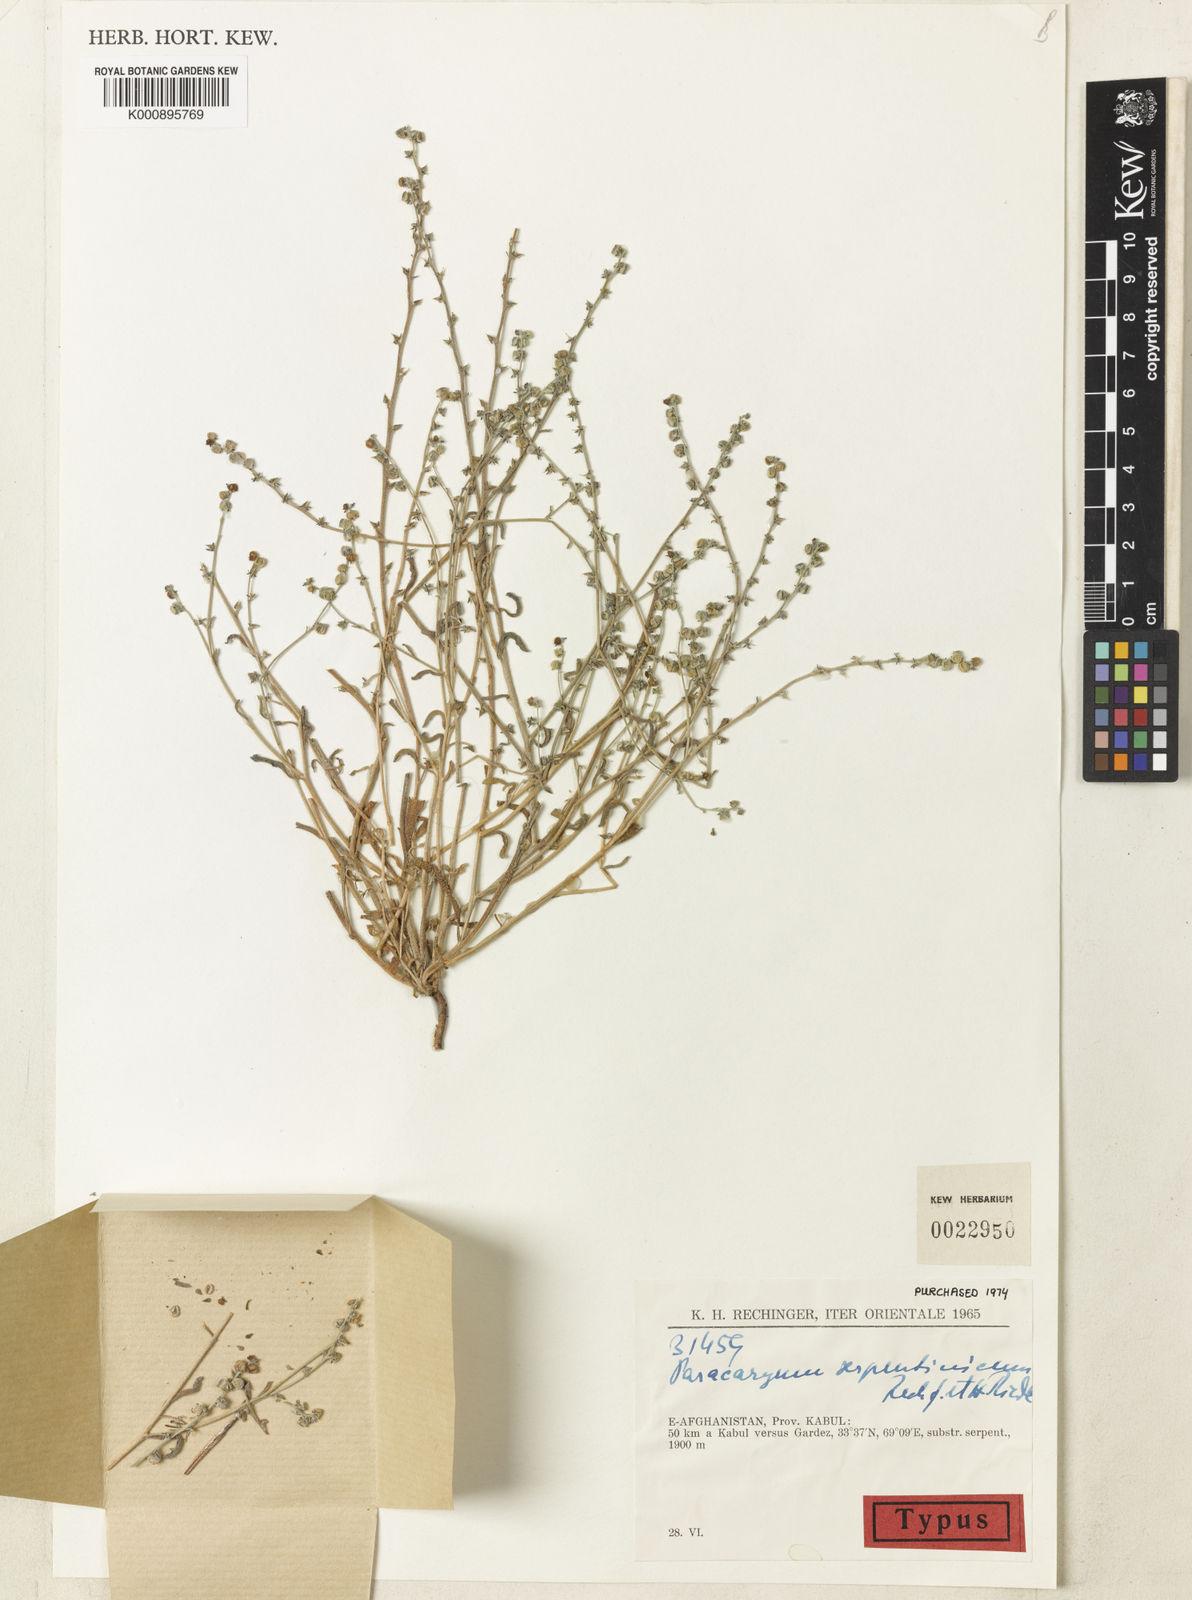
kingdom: Plantae
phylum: Tracheophyta
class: Magnoliopsida
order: Boraginales
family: Boraginaceae
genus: Microparacaryum
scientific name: Microparacaryum intermedium
